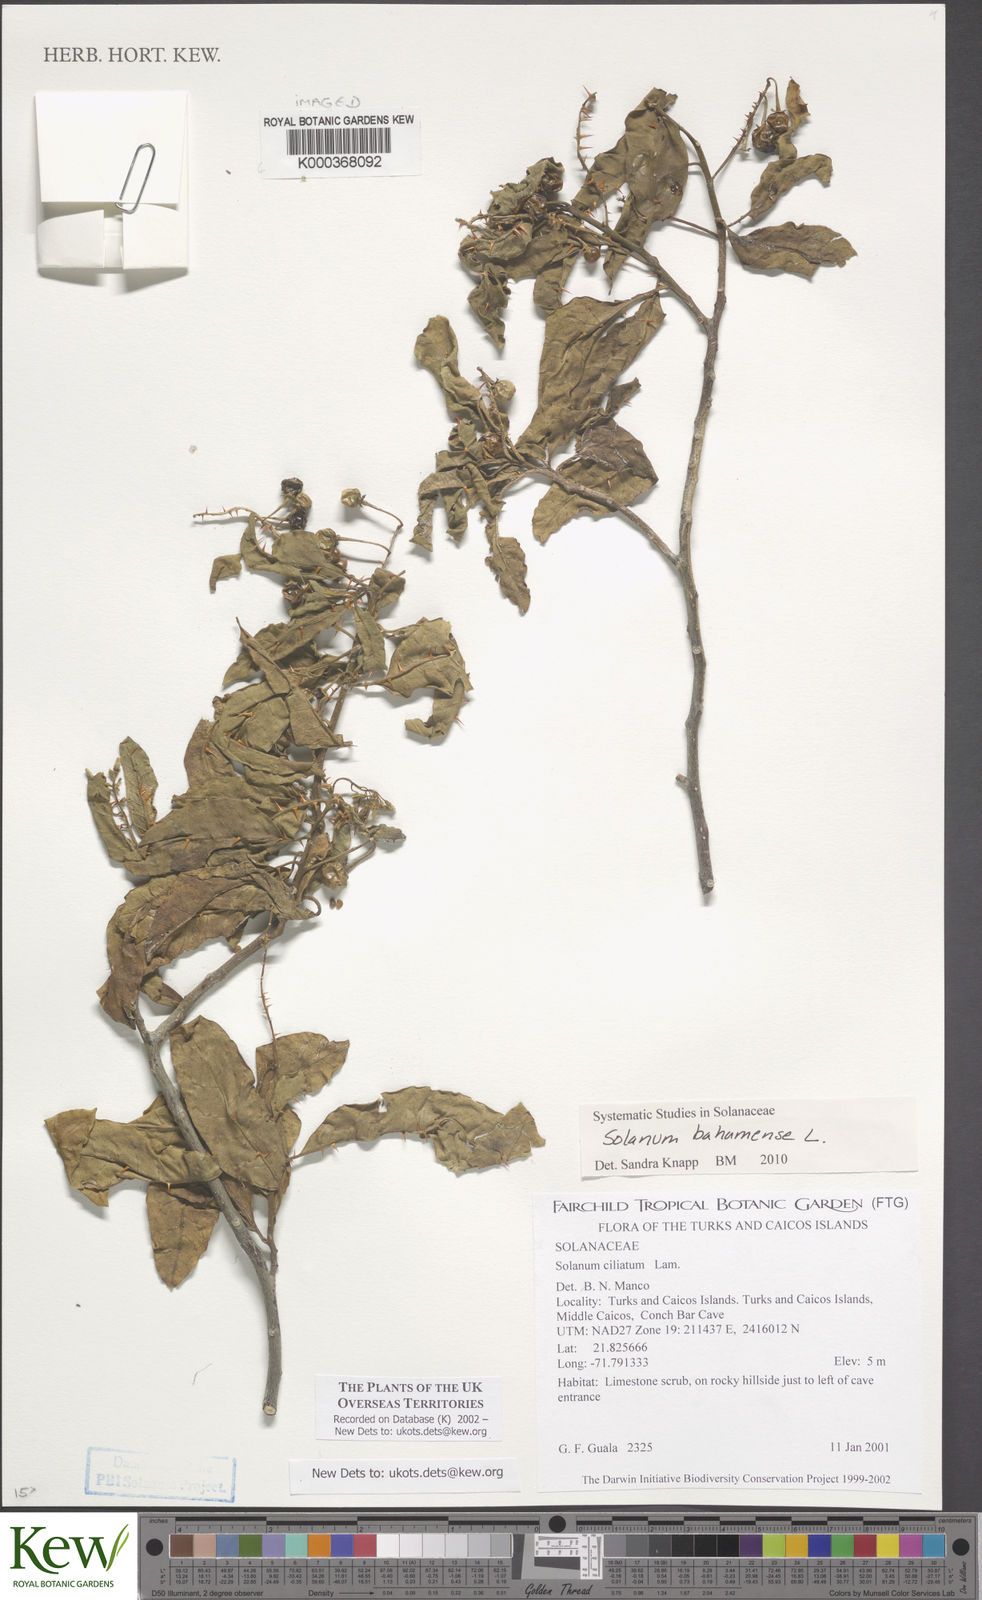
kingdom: Plantae
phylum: Tracheophyta
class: Magnoliopsida
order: Solanales
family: Solanaceae
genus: Solanum
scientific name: Solanum bahamense
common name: Canker-berry
